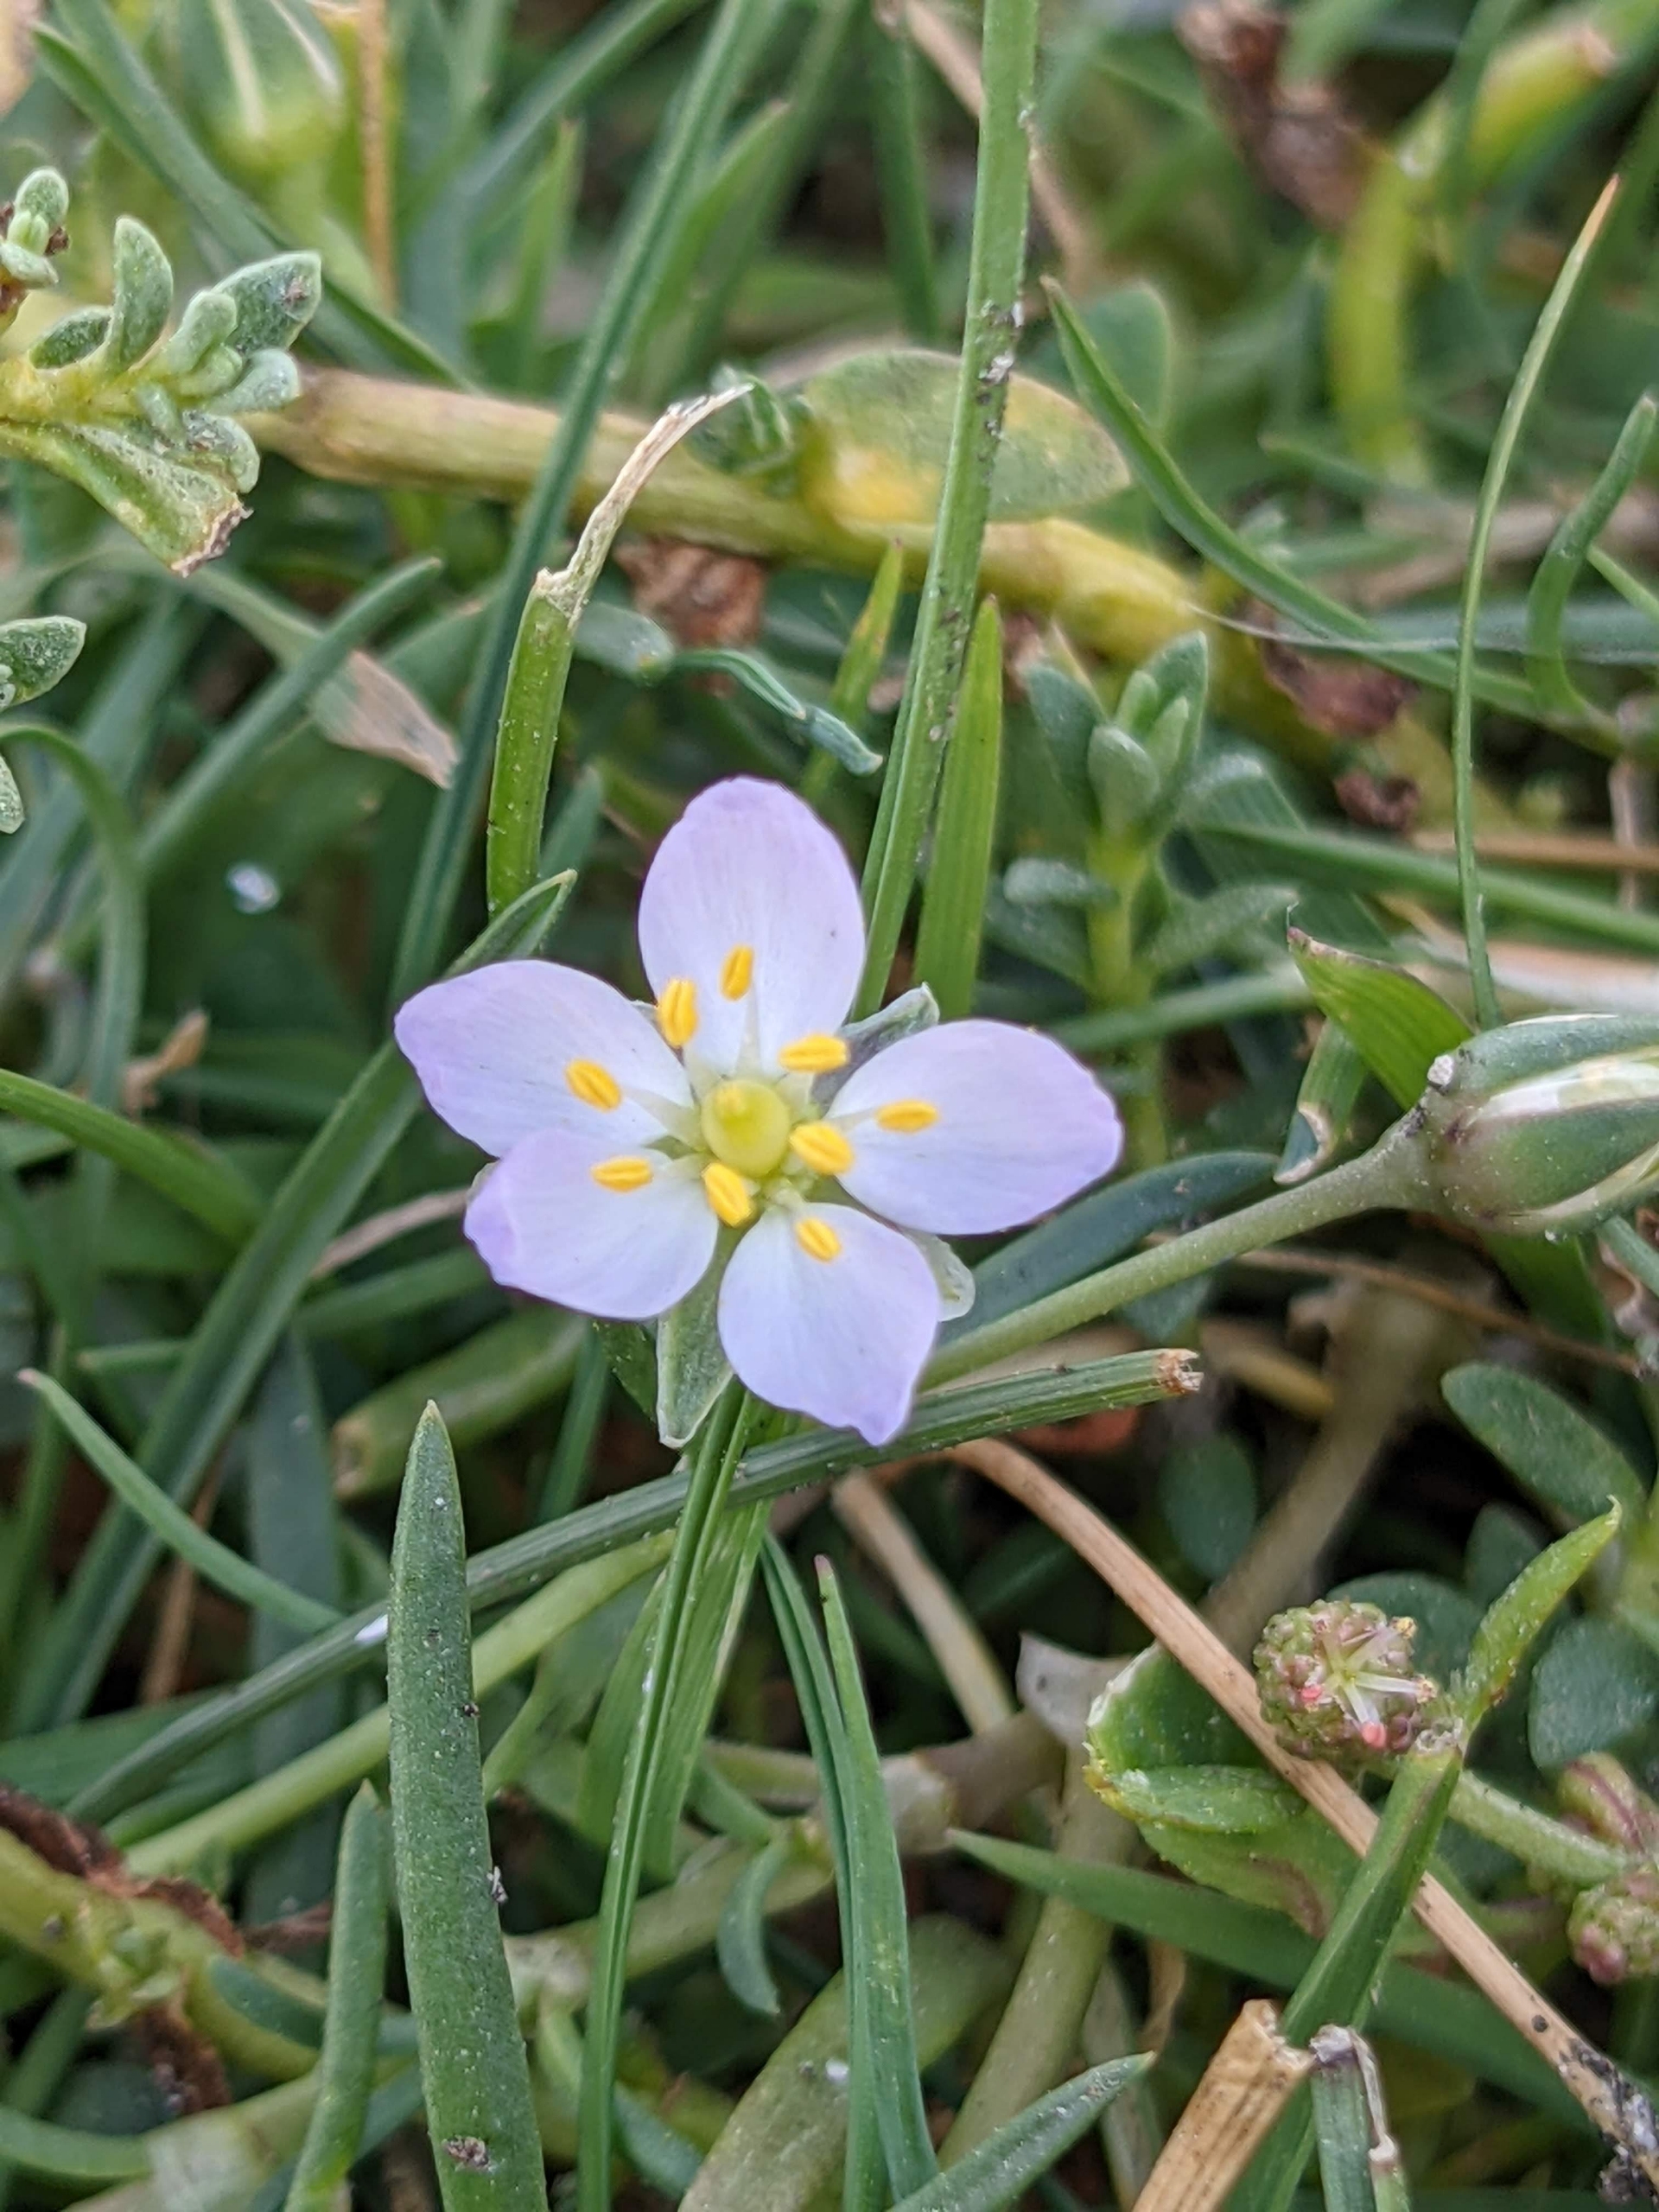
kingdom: Plantae
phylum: Tracheophyta
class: Magnoliopsida
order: Caryophyllales
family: Caryophyllaceae
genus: Spergularia
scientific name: Spergularia media
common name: Vingefrøet hindeknæ
